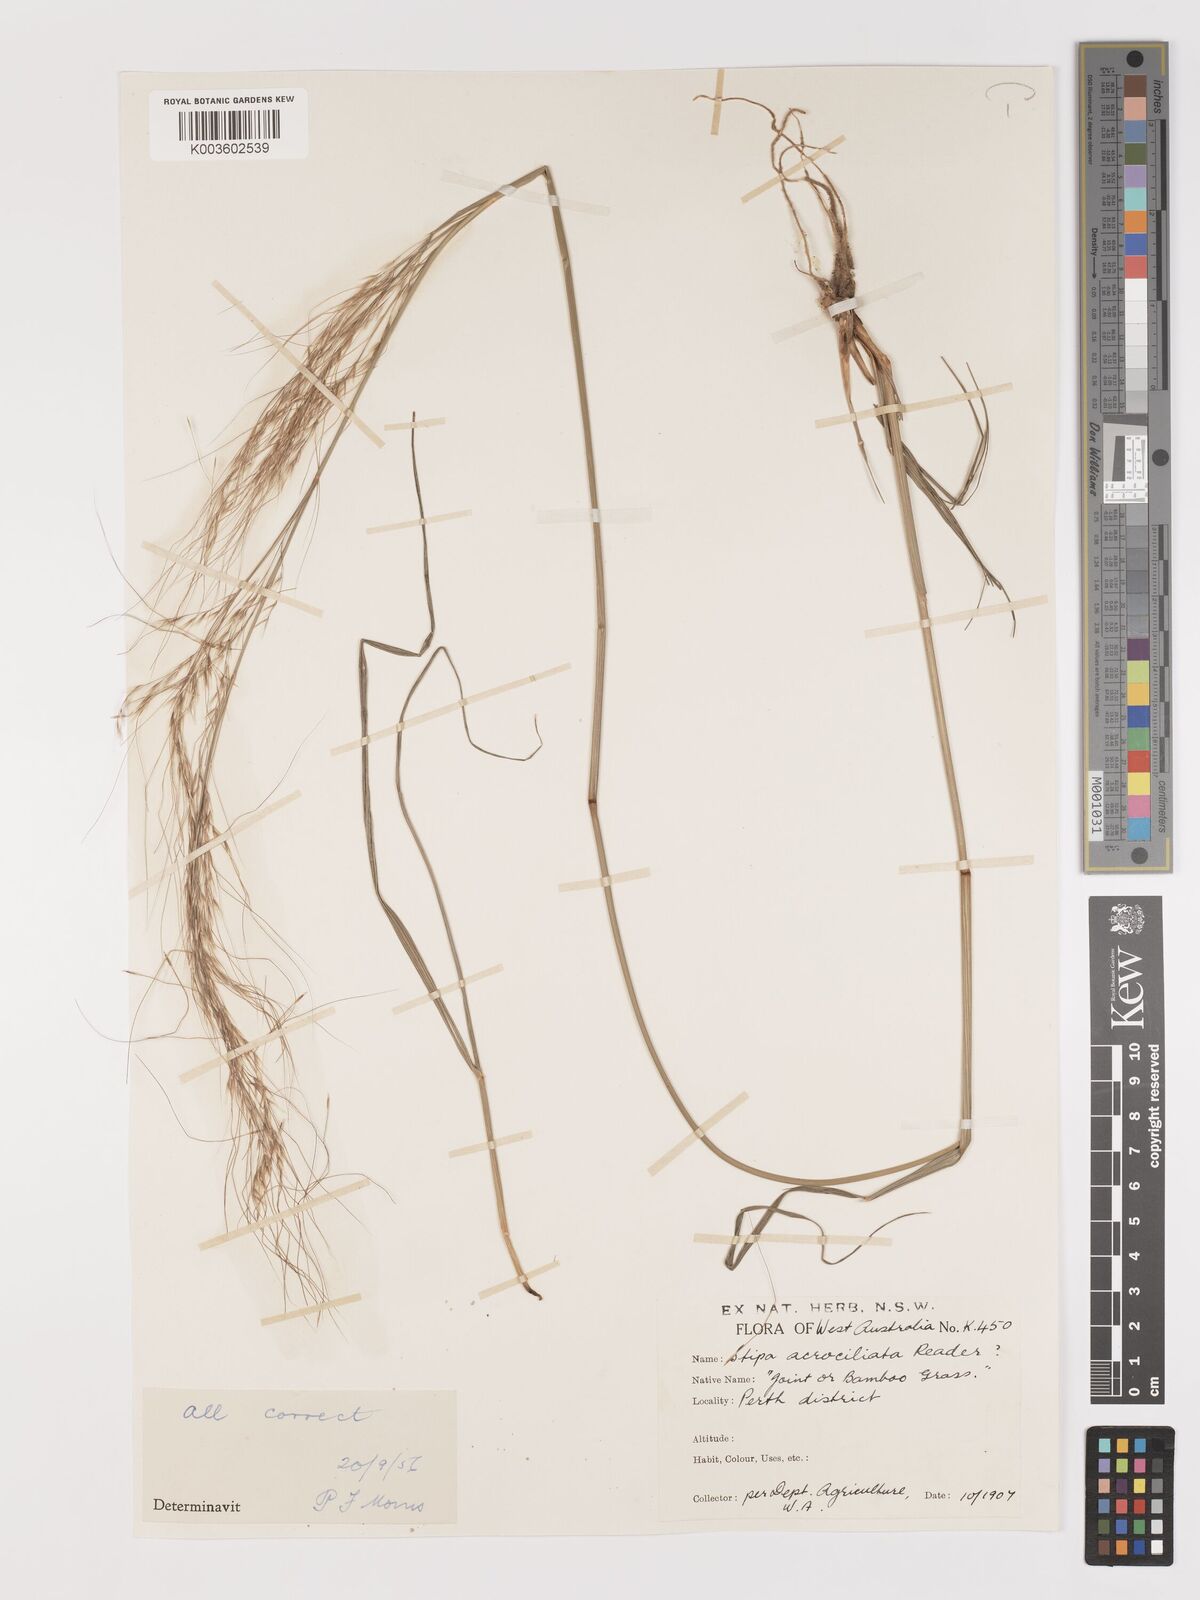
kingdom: Plantae
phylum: Tracheophyta
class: Liliopsida
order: Poales
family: Poaceae
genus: Austrostipa
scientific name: Austrostipa acrociliata
